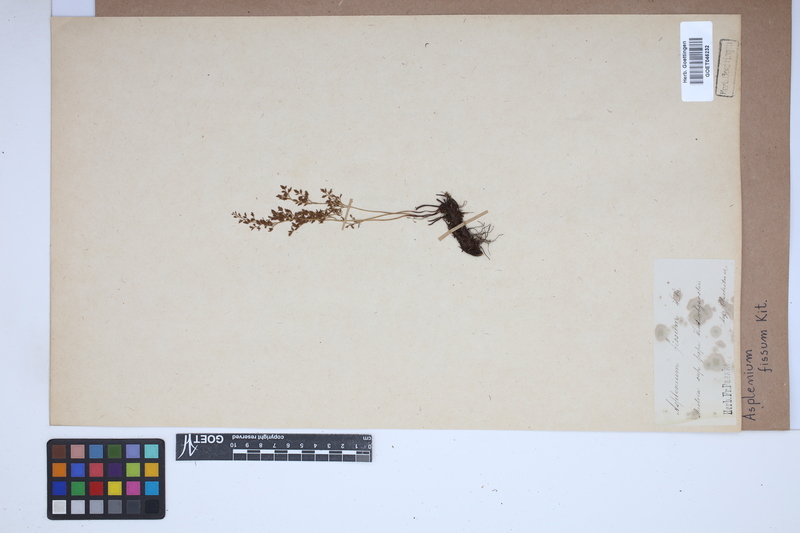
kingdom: Plantae
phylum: Tracheophyta
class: Polypodiopsida
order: Polypodiales
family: Aspleniaceae
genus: Asplenium
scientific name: Asplenium fissum
